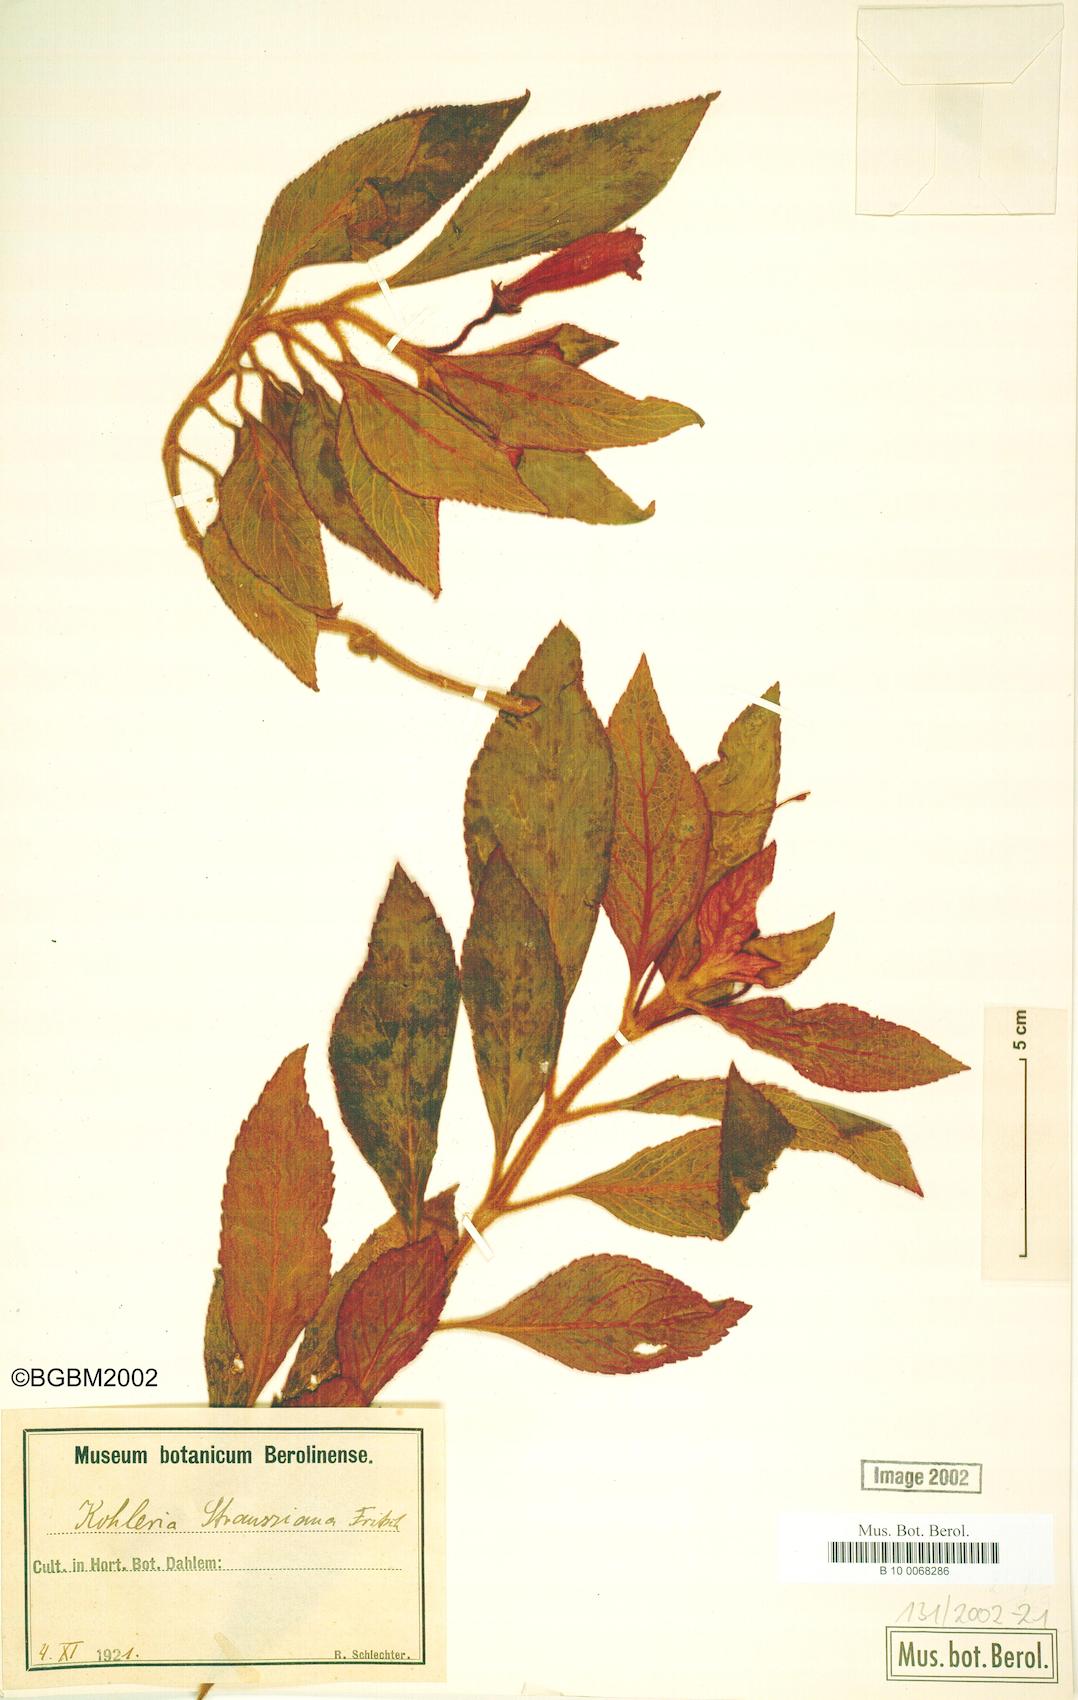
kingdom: Plantae
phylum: Tracheophyta
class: Magnoliopsida
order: Lamiales
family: Gesneriaceae
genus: Kohleria
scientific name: Kohleria hirsuta
